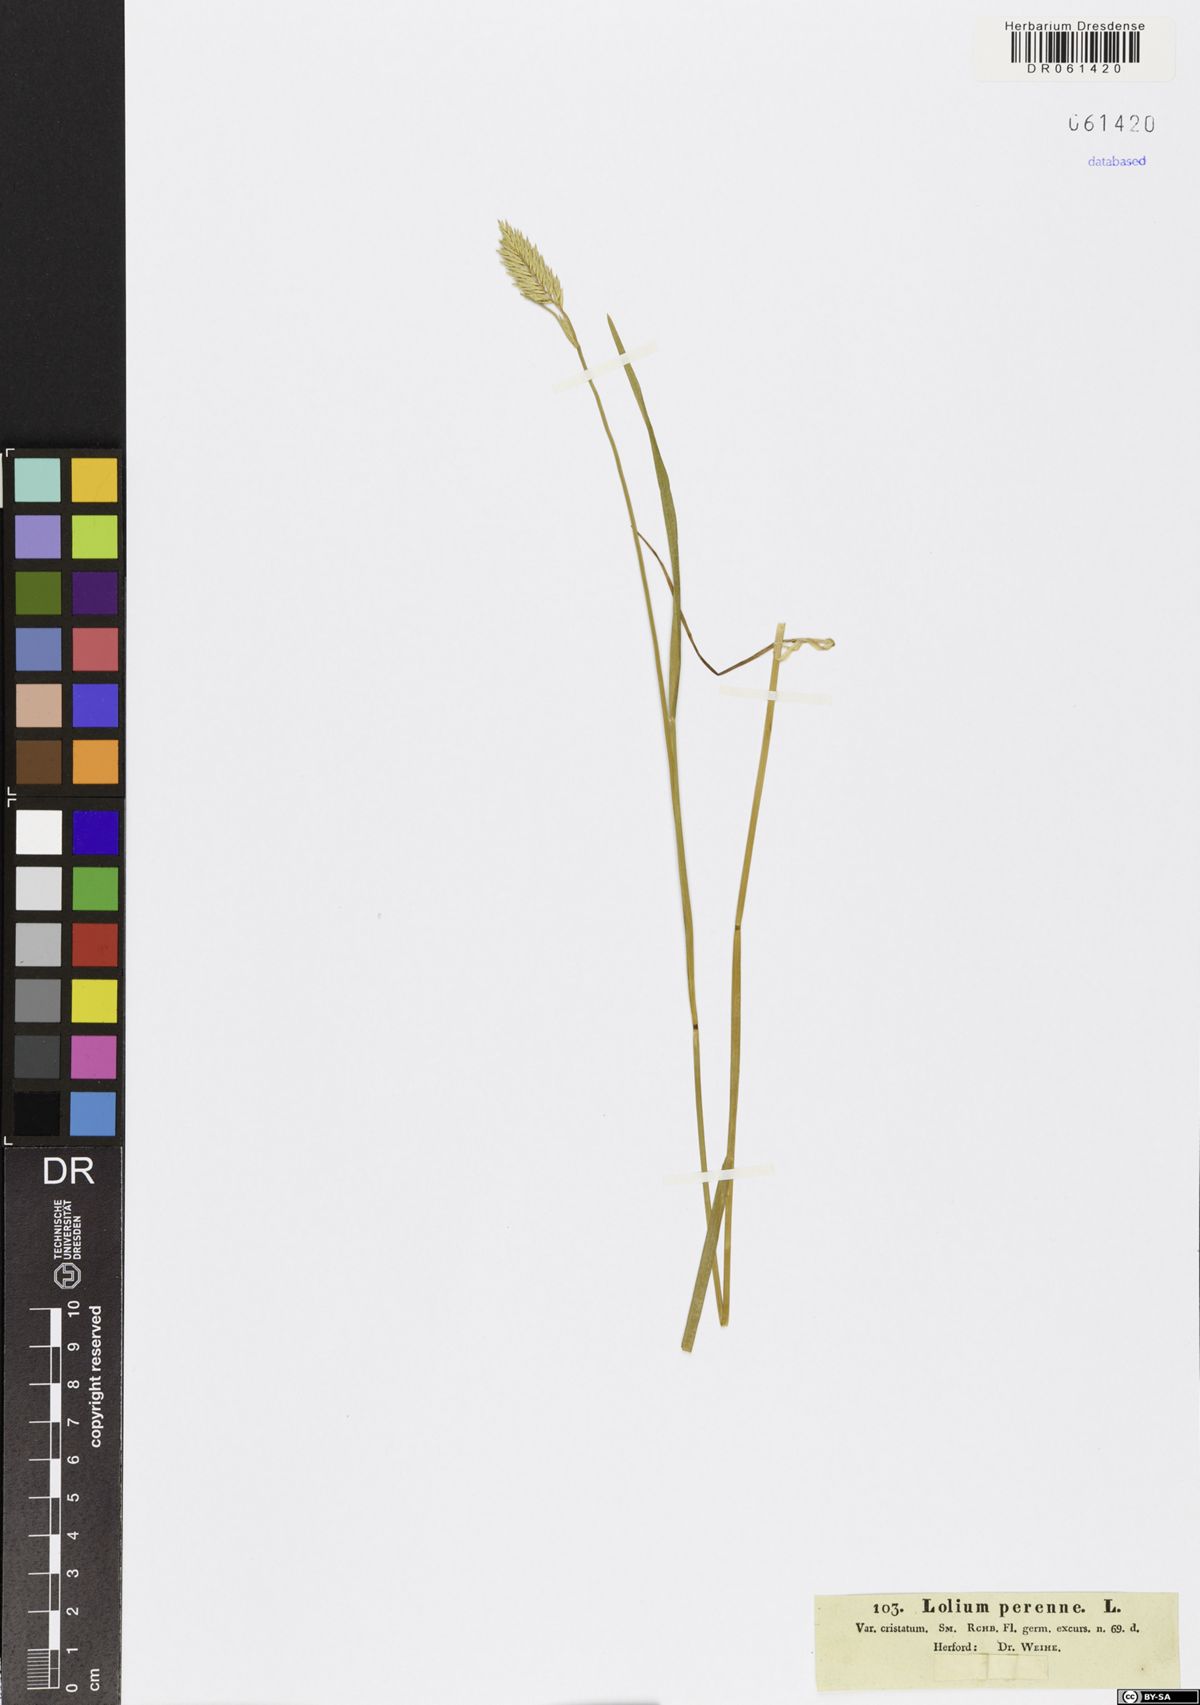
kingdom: Plantae
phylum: Tracheophyta
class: Liliopsida
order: Poales
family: Poaceae
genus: Lolium
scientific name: Lolium perenne
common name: Perennial ryegrass
